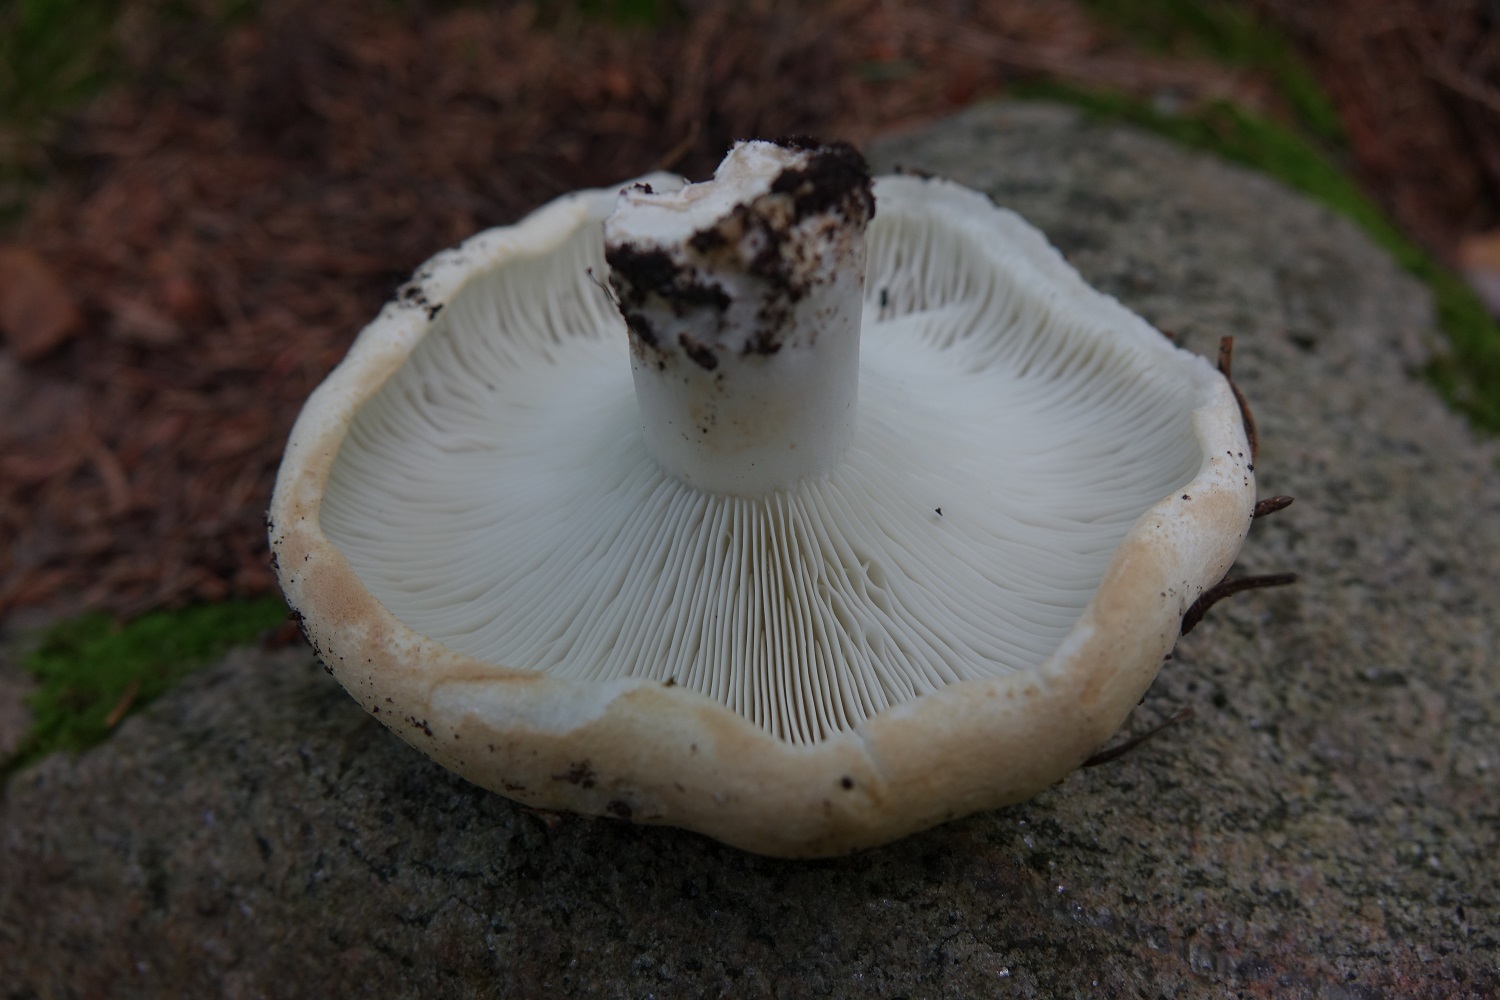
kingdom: Fungi
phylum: Basidiomycota
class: Agaricomycetes
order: Russulales
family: Russulaceae
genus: Russula
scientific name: Russula chloroides
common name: Blue band brittlegill
